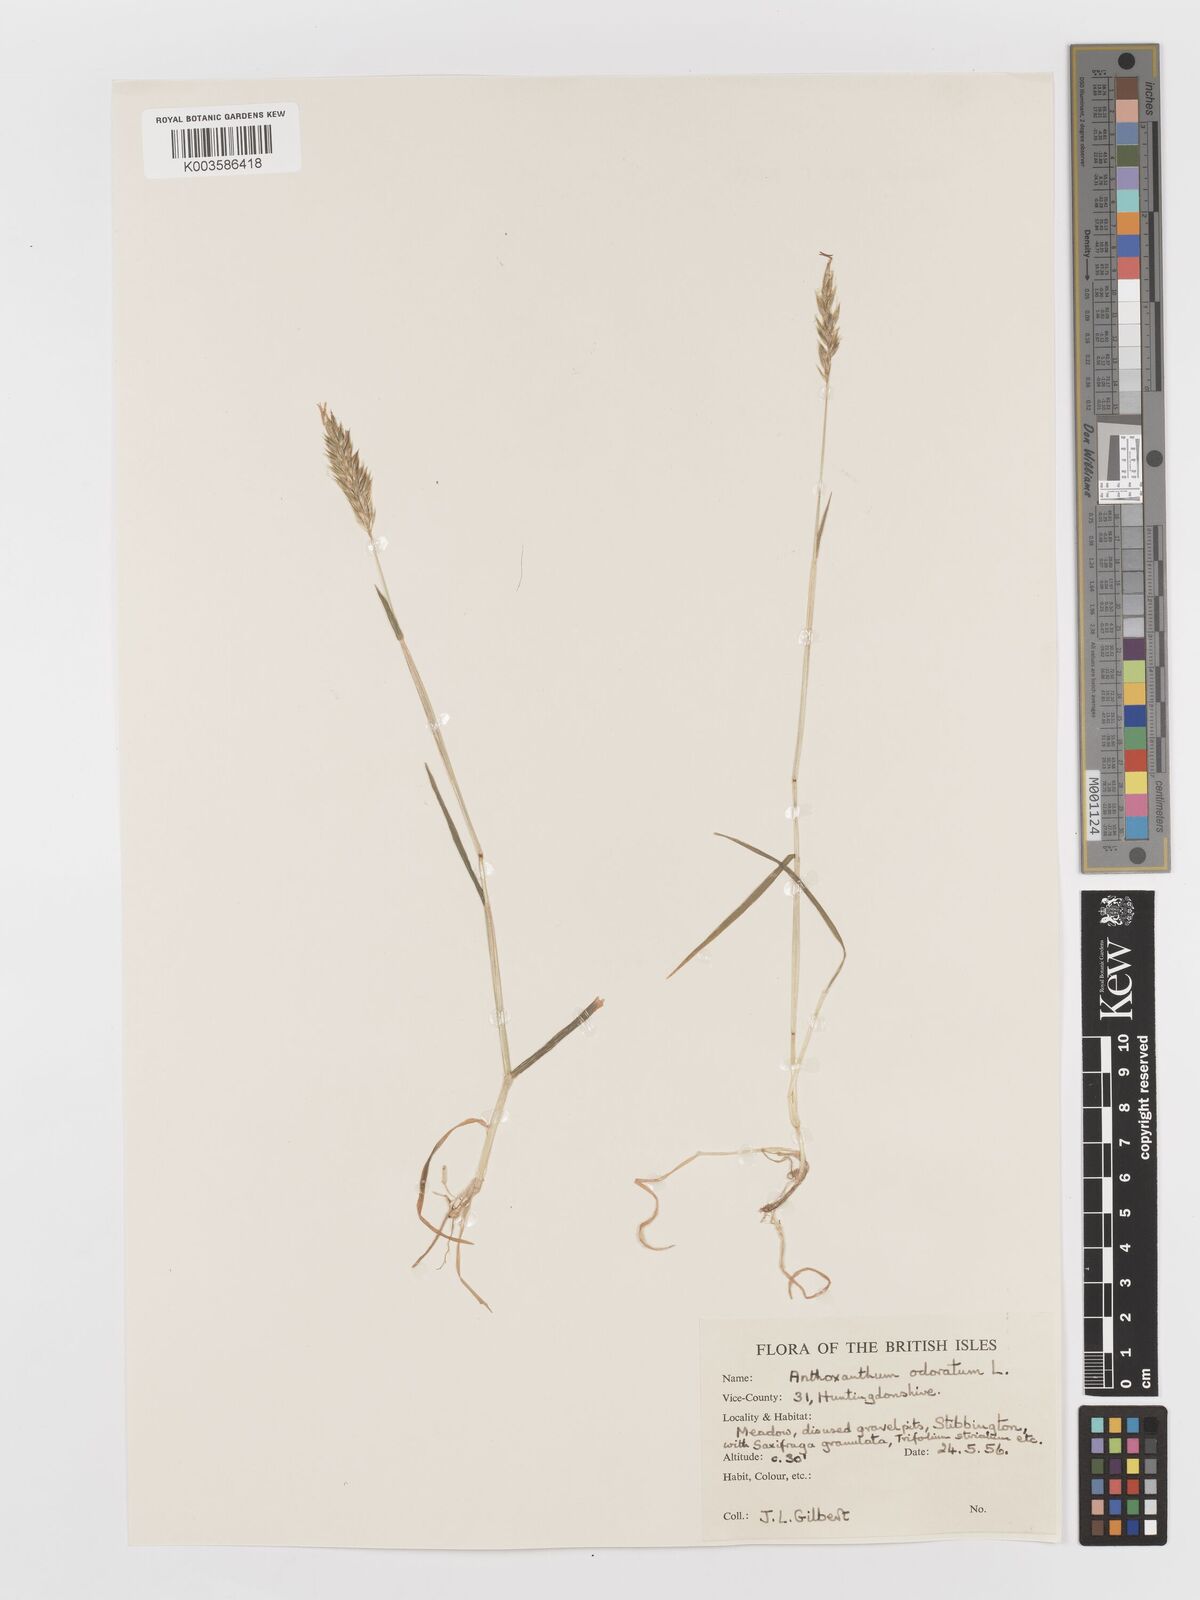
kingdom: Plantae
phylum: Tracheophyta
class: Liliopsida
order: Poales
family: Poaceae
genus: Anthoxanthum
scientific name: Anthoxanthum odoratum
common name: Sweet vernalgrass
